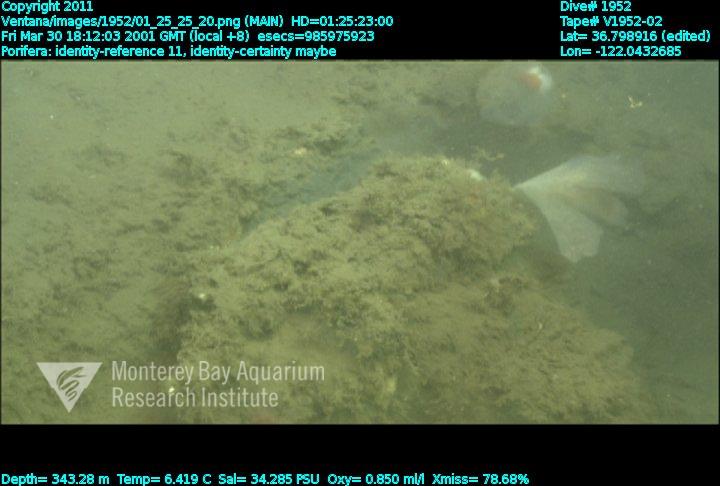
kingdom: Animalia
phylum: Porifera
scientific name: Porifera
